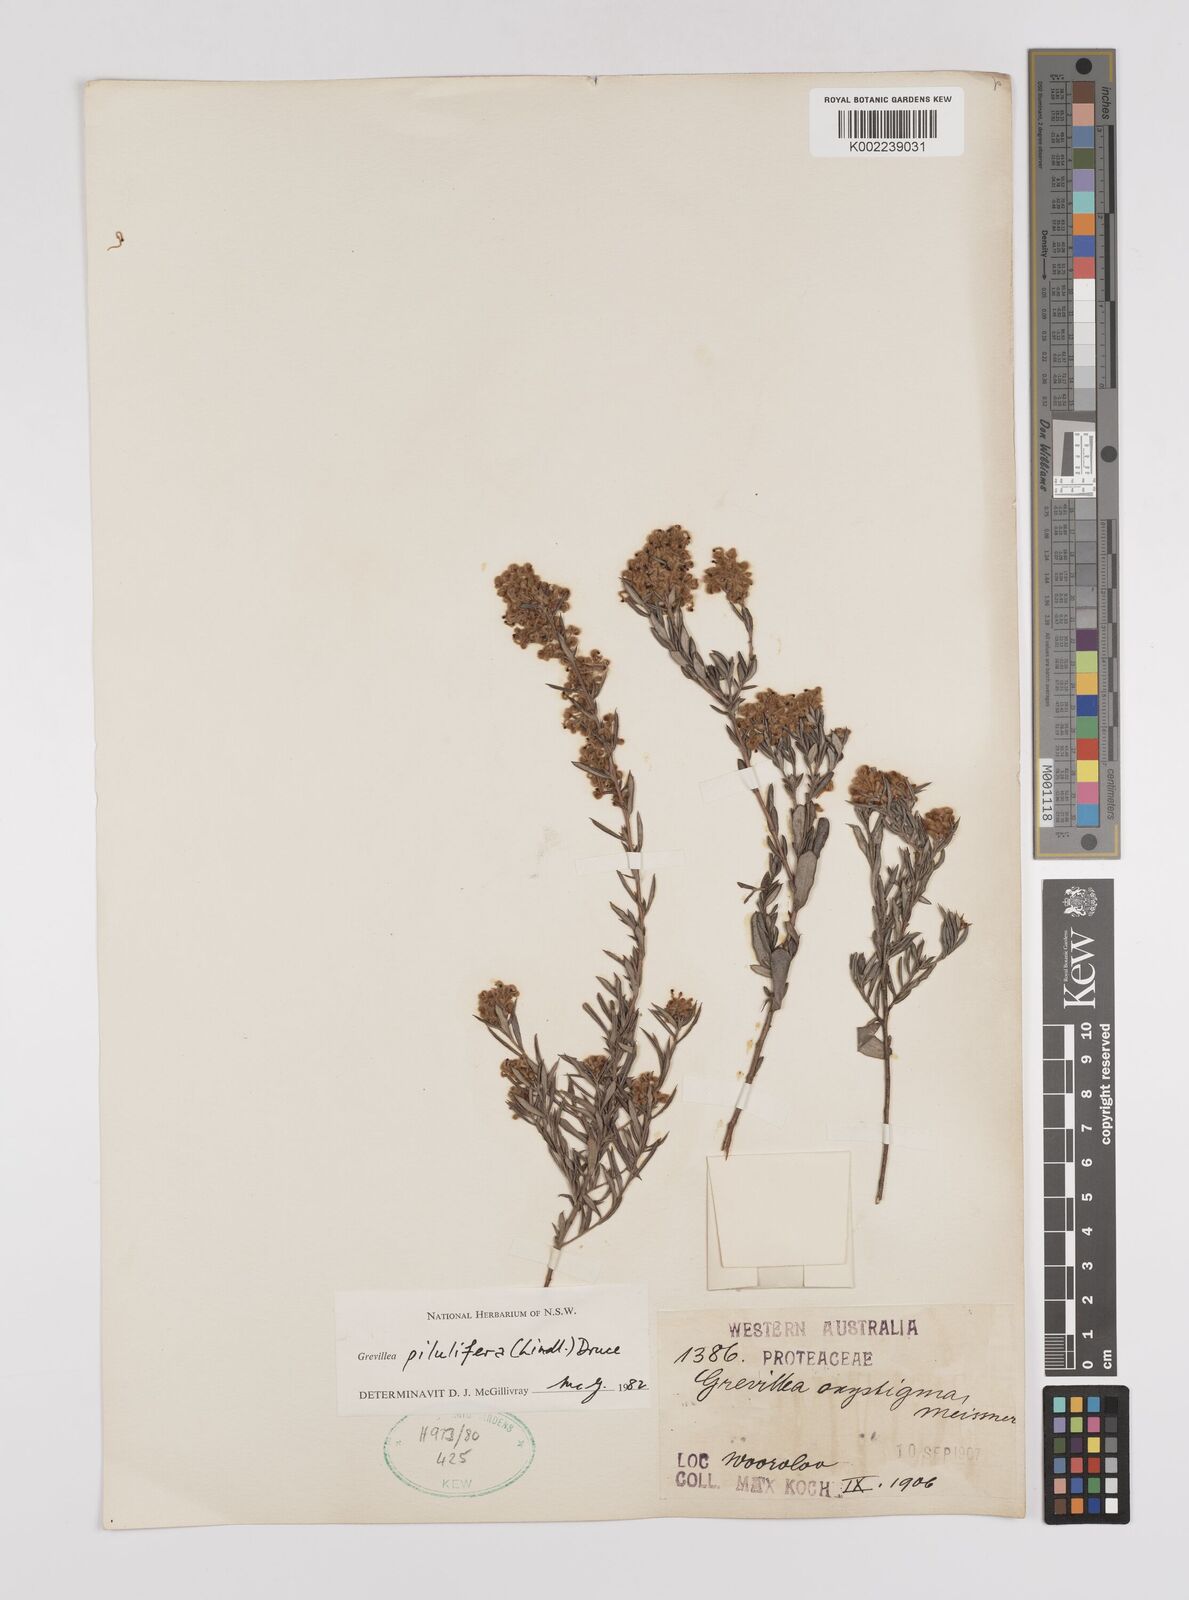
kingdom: Plantae
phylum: Tracheophyta
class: Magnoliopsida
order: Proteales
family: Proteaceae
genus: Grevillea
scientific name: Grevillea pilulifera
